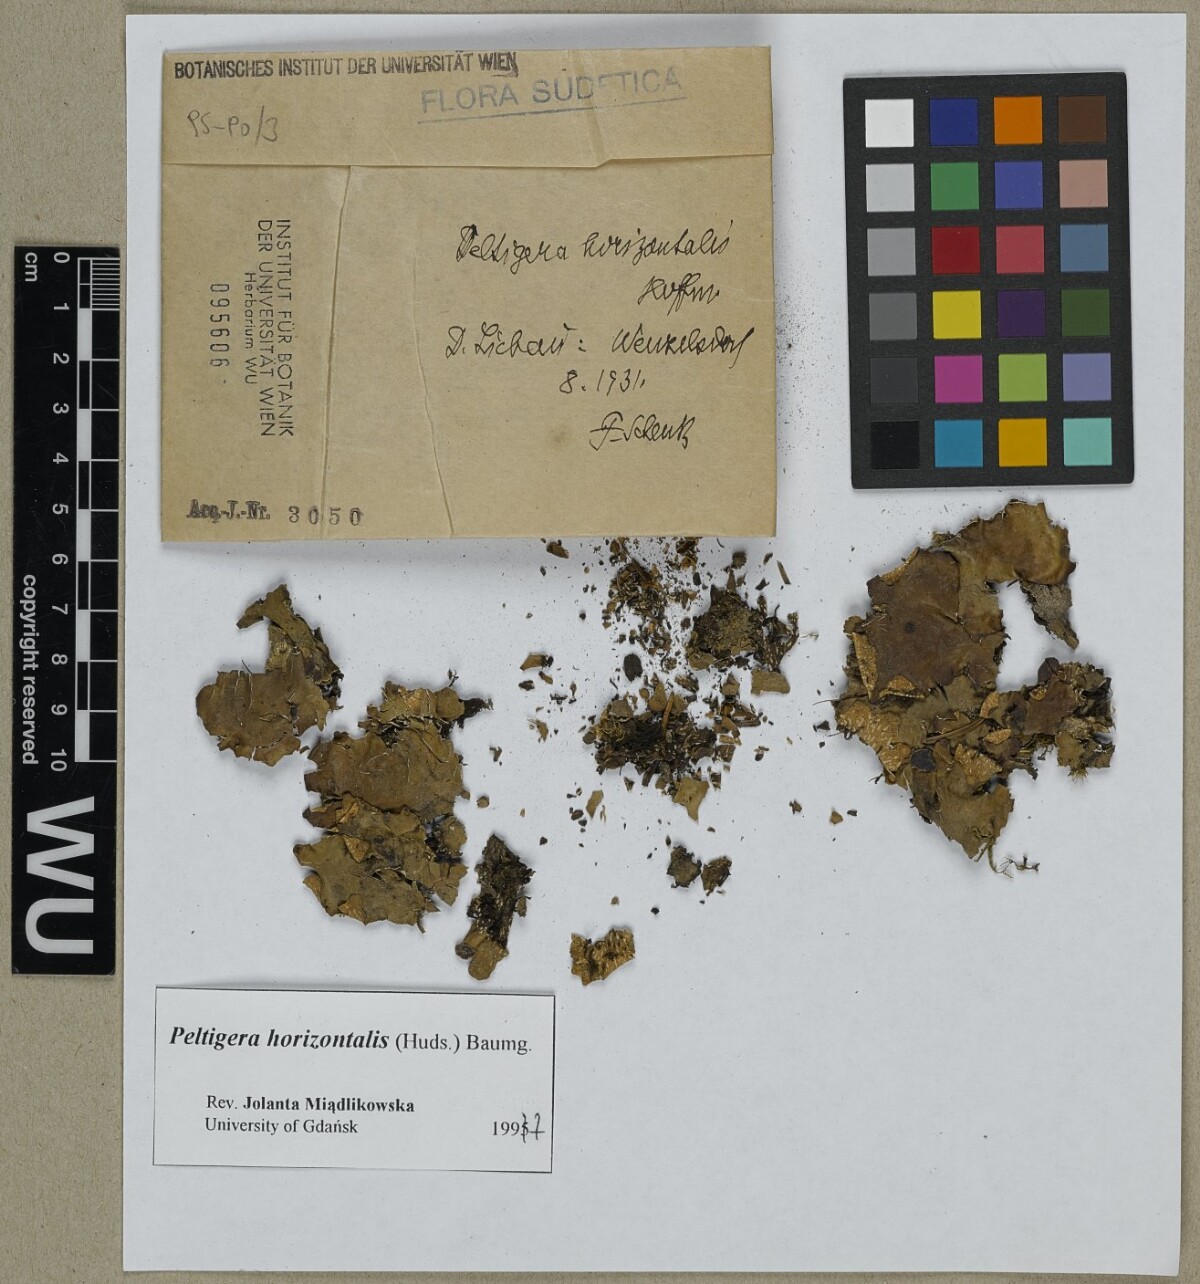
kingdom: Fungi
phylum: Ascomycota
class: Lecanoromycetes
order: Peltigerales
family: Peltigeraceae
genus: Peltigera
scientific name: Peltigera horizontalis
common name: Flat fruited pelt
